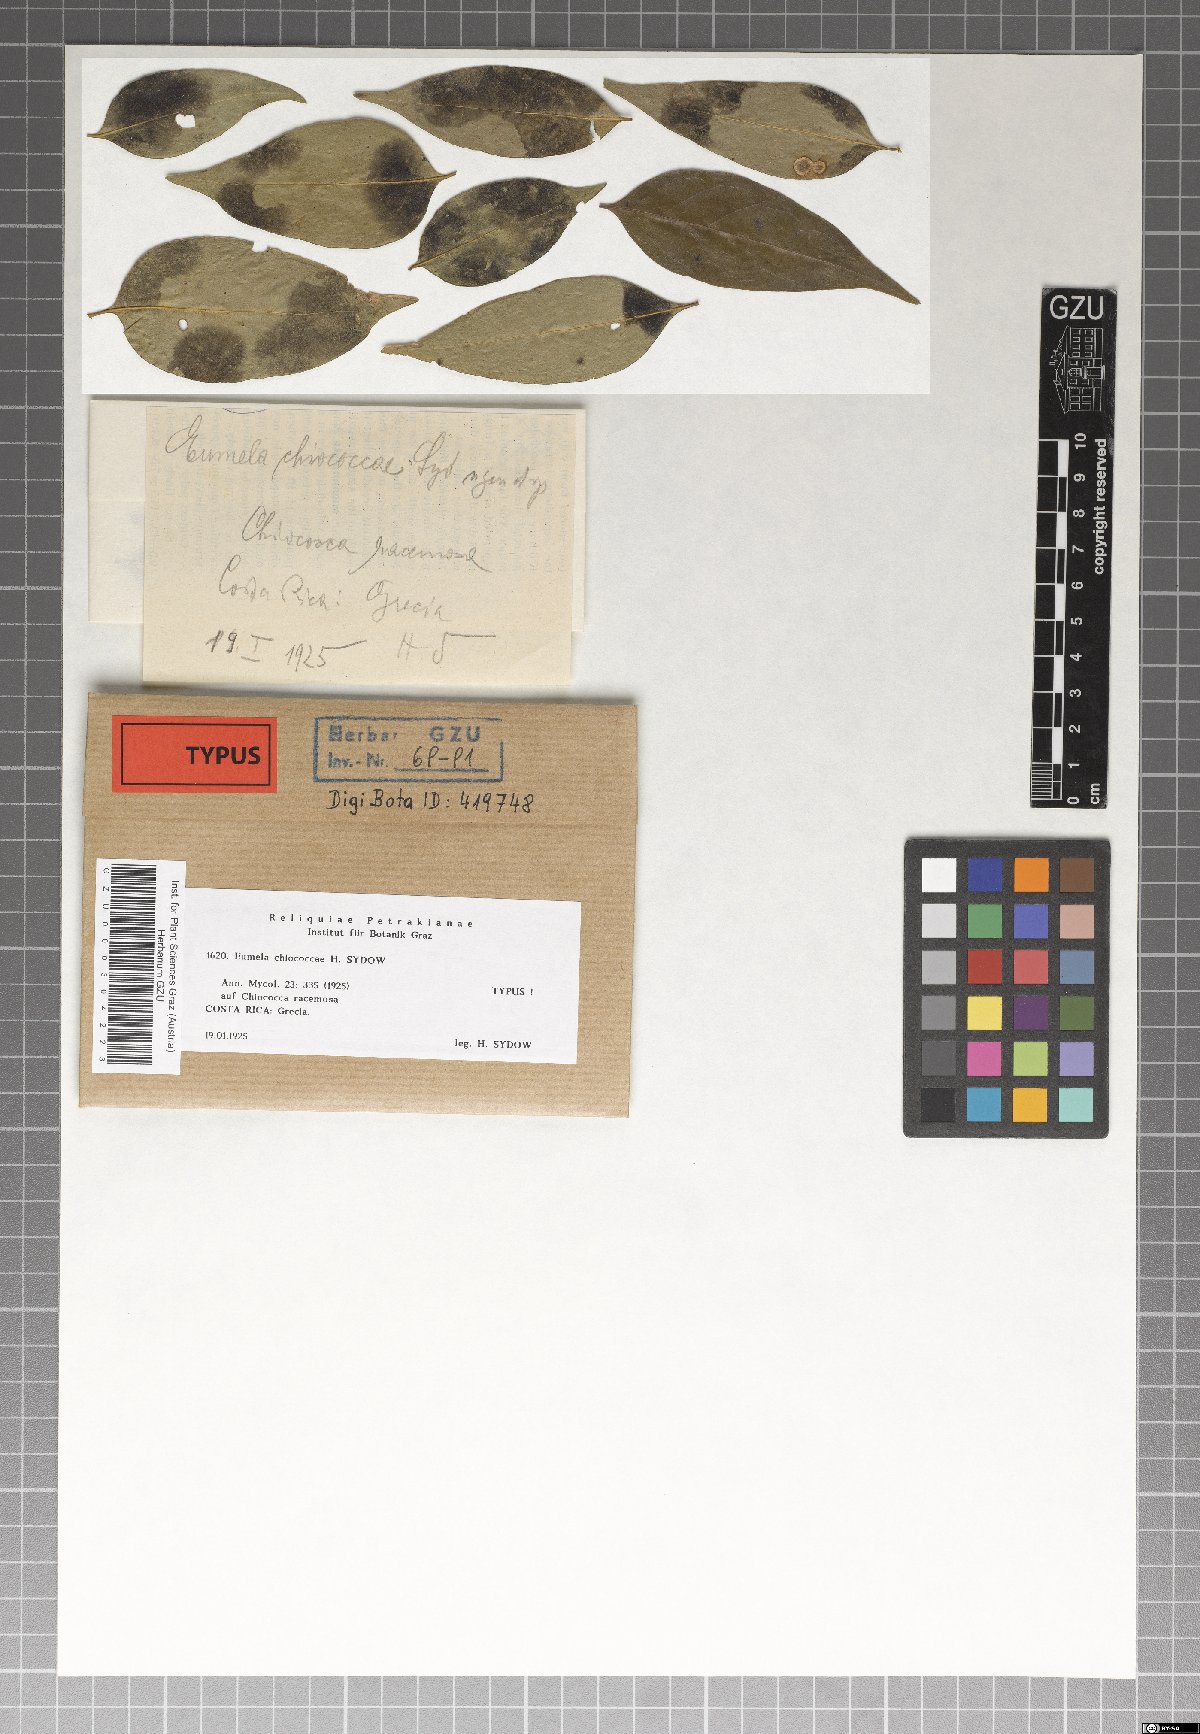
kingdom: Fungi
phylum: Ascomycota
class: Dothideomycetes
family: Pseudoperisporiaceae
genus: Eumela
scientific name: Eumela chiococcae
